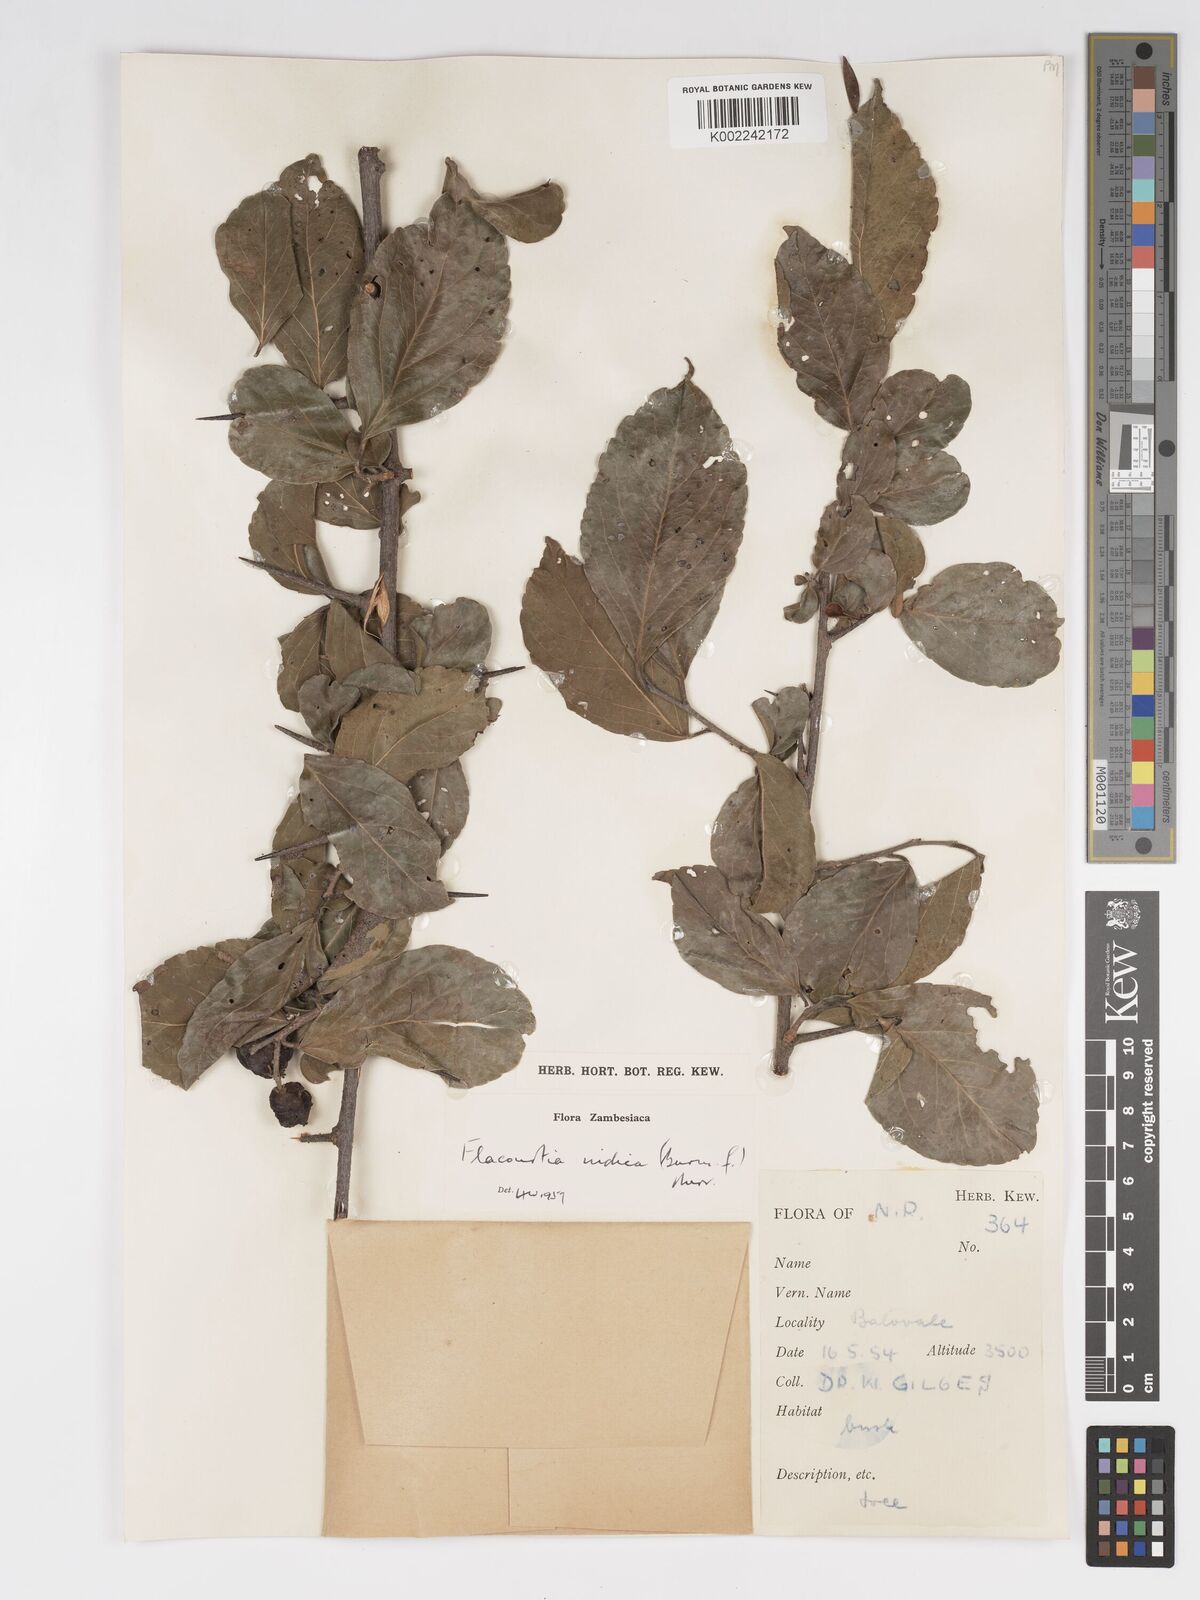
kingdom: Plantae
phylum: Tracheophyta
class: Magnoliopsida
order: Malpighiales
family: Salicaceae
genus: Flacourtia
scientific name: Flacourtia indica
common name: Governor's plum
